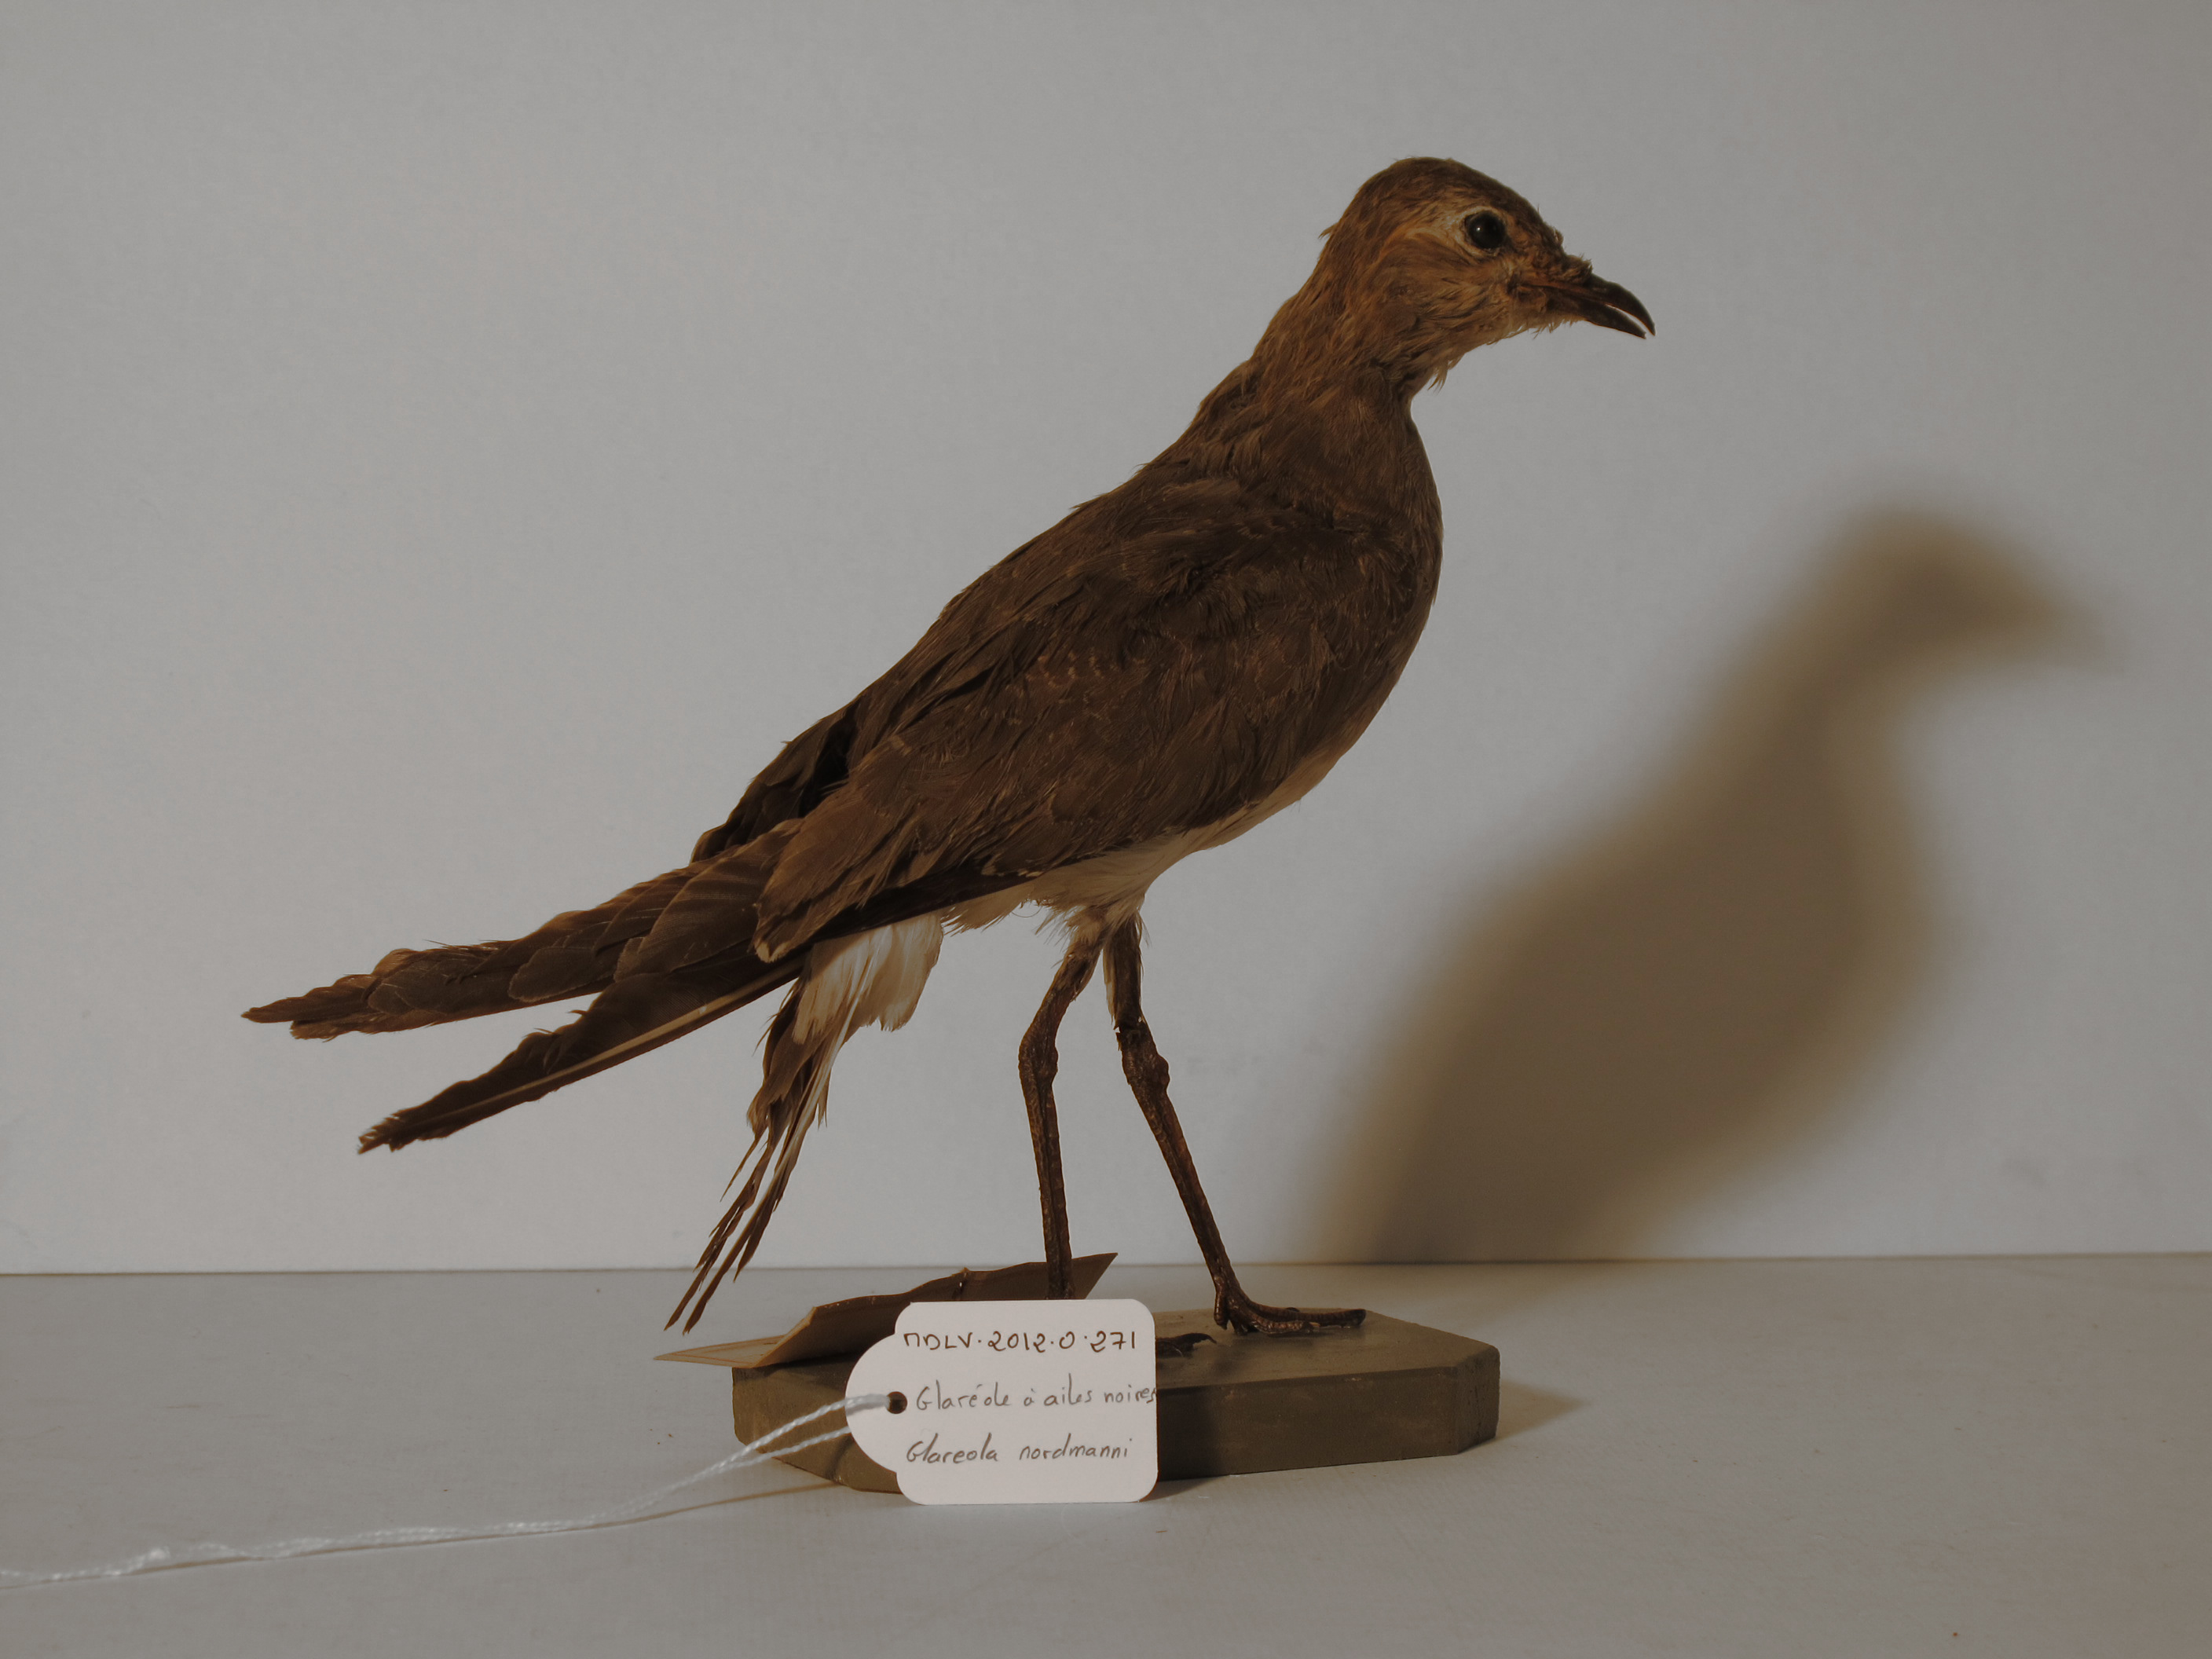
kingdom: Animalia
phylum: Chordata
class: Aves
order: Charadriiformes
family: Glareolidae
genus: Glareola
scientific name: Glareola nordmanni
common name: Black-winged Pratincole
